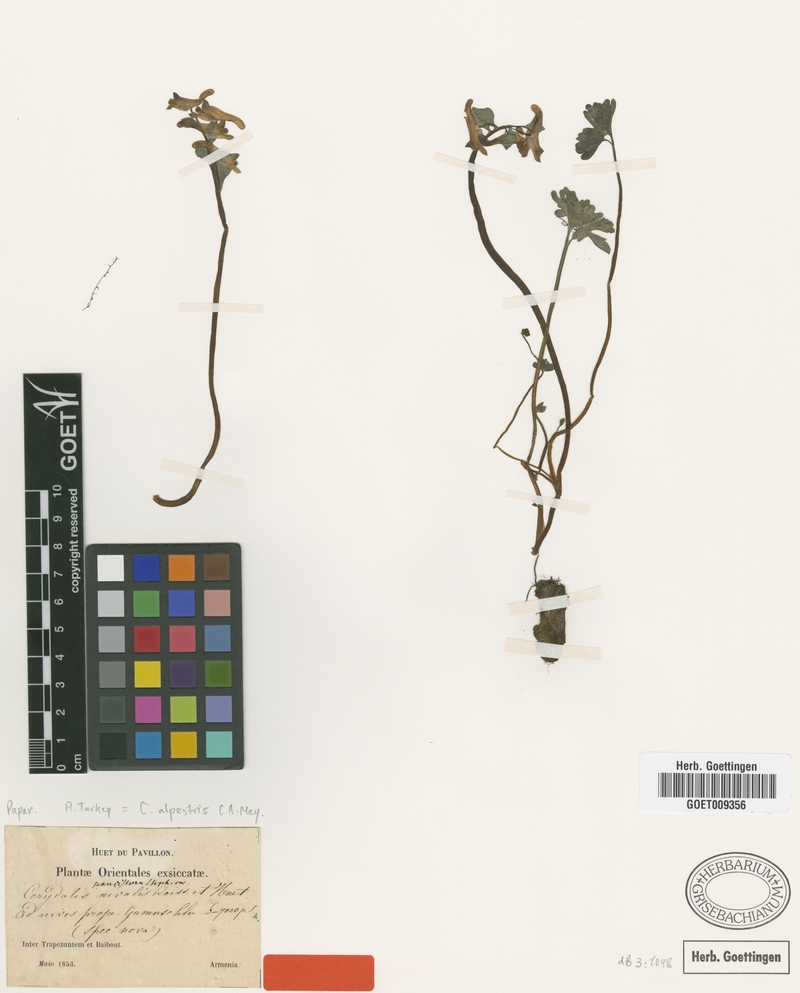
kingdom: Plantae
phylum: Tracheophyta
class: Magnoliopsida
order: Ranunculales
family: Papaveraceae
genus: Corydalis
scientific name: Corydalis alpestris
